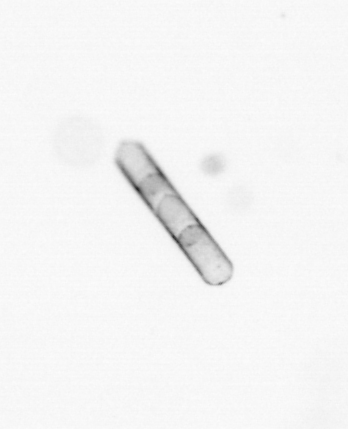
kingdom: Chromista
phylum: Ochrophyta
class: Bacillariophyceae
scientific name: Bacillariophyceae
